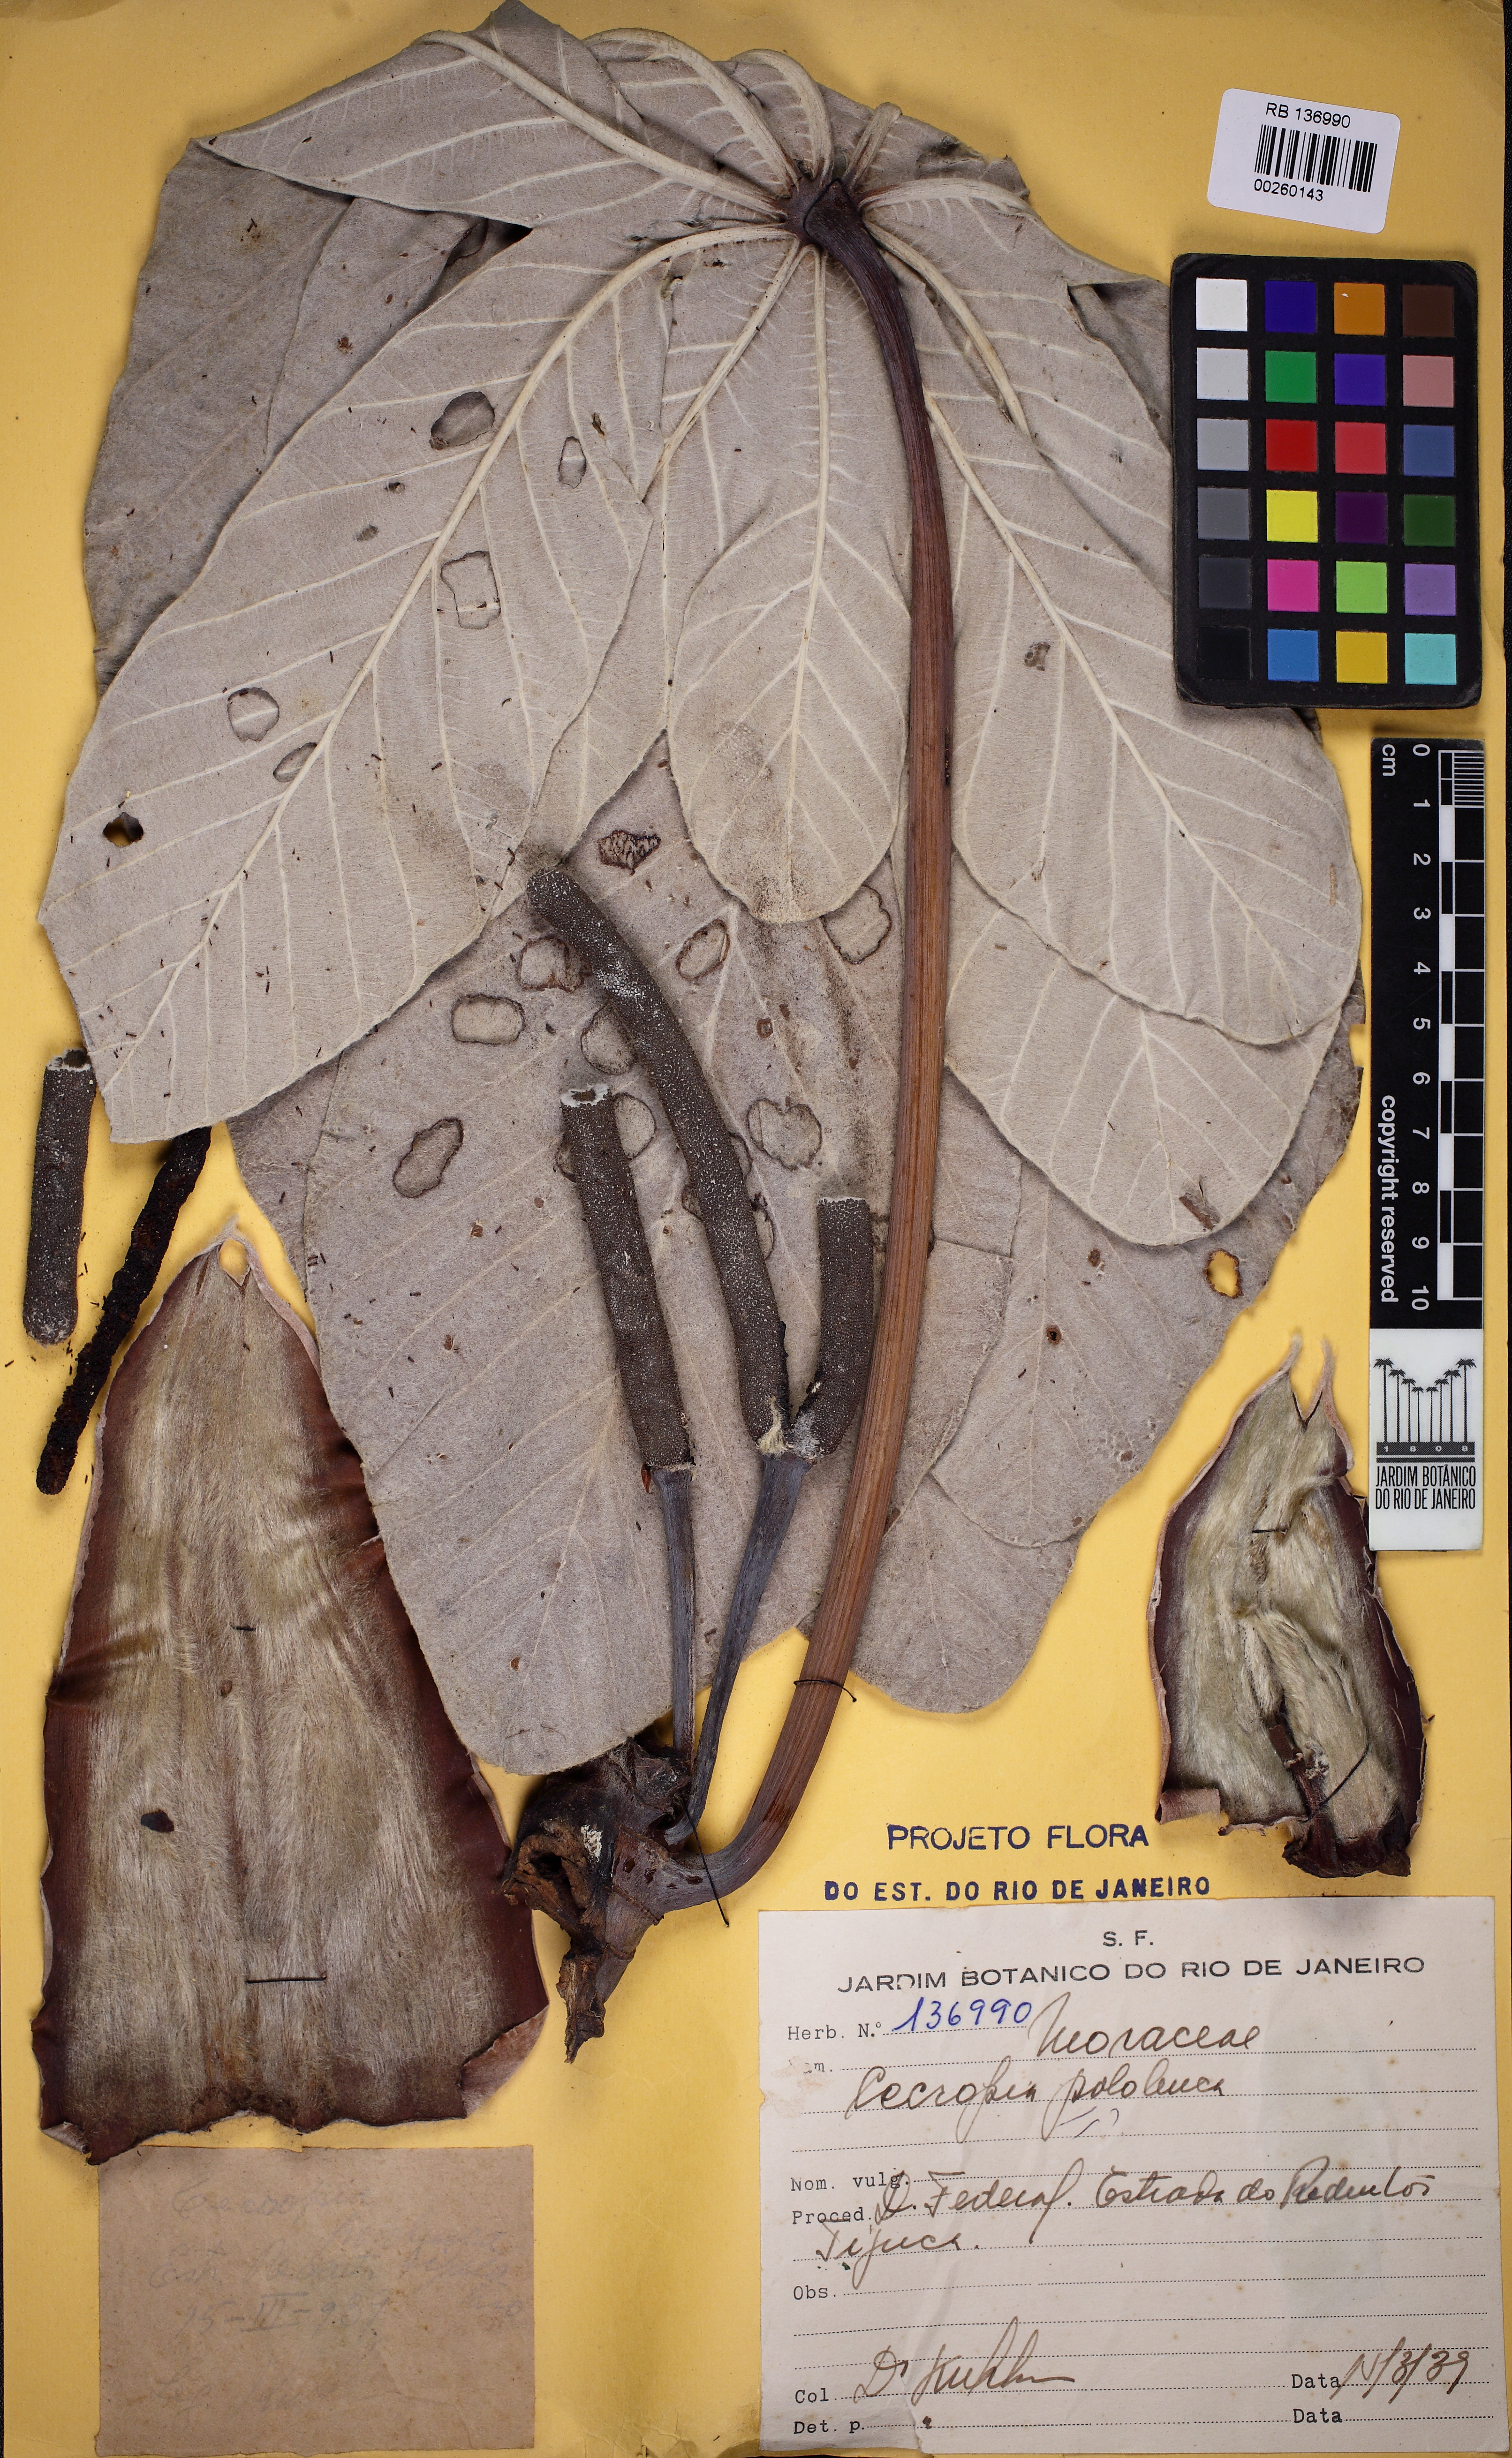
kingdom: Plantae
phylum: Tracheophyta
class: Magnoliopsida
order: Rosales
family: Urticaceae
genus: Cecropia
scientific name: Cecropia hololeuca
